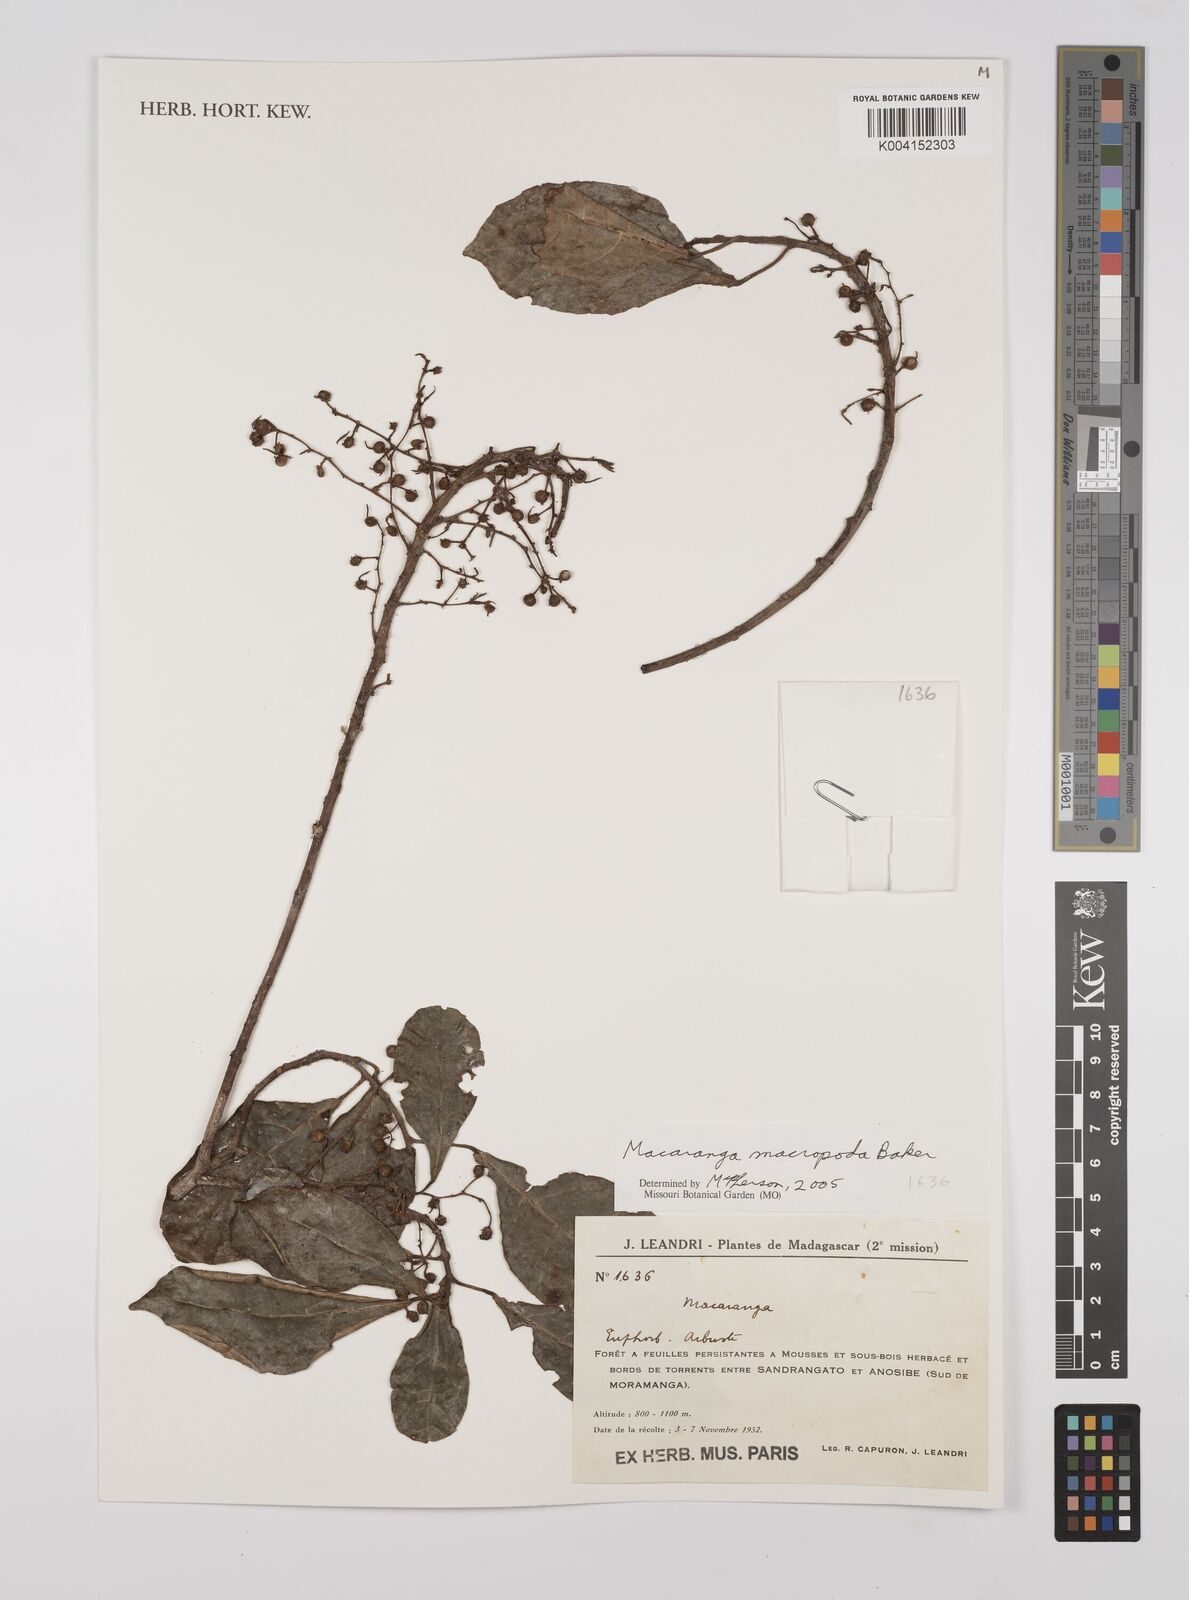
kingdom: Plantae
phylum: Tracheophyta
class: Magnoliopsida
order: Malpighiales
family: Euphorbiaceae
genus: Macaranga
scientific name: Macaranga macropoda
